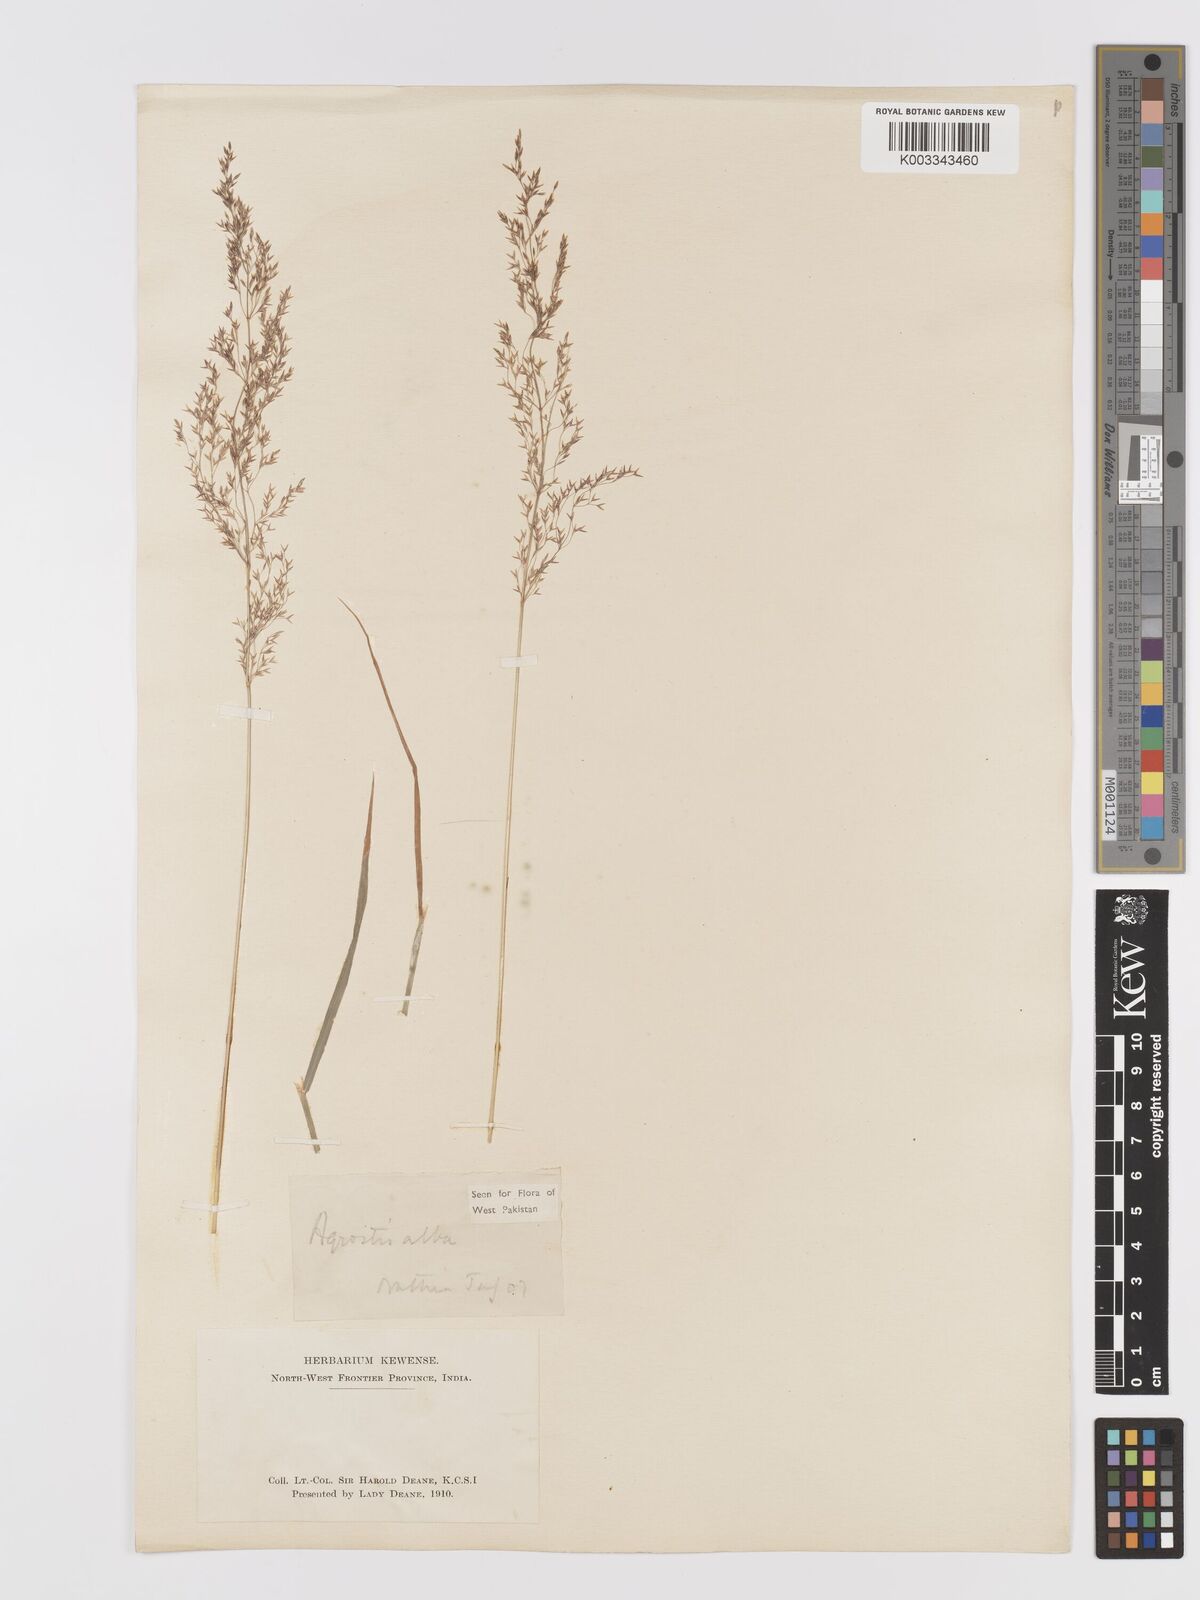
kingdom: Plantae
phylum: Tracheophyta
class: Liliopsida
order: Poales
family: Poaceae
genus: Agrostis
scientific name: Agrostis stolonifera
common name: Creeping bentgrass
